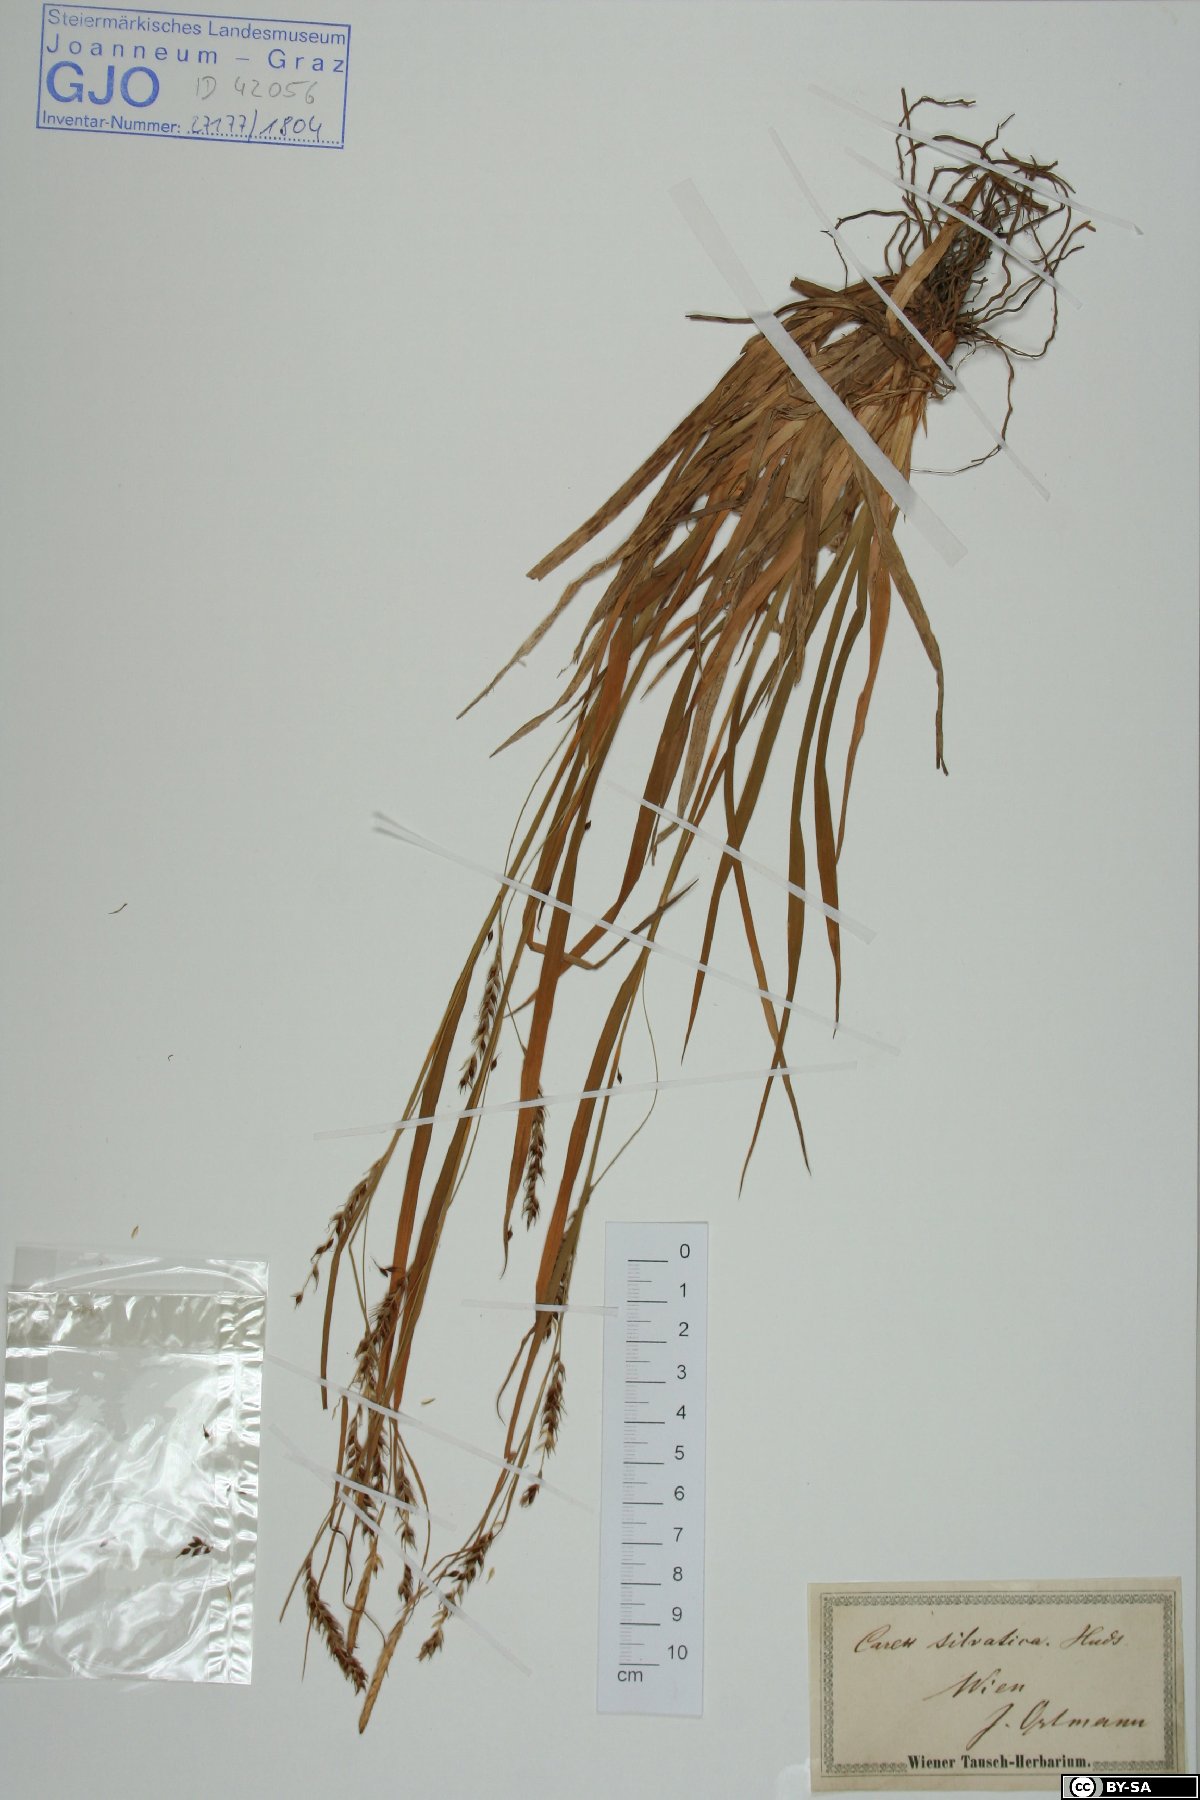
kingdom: Plantae
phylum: Tracheophyta
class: Liliopsida
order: Poales
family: Cyperaceae
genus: Carex
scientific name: Carex sylvatica
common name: Wood-sedge
